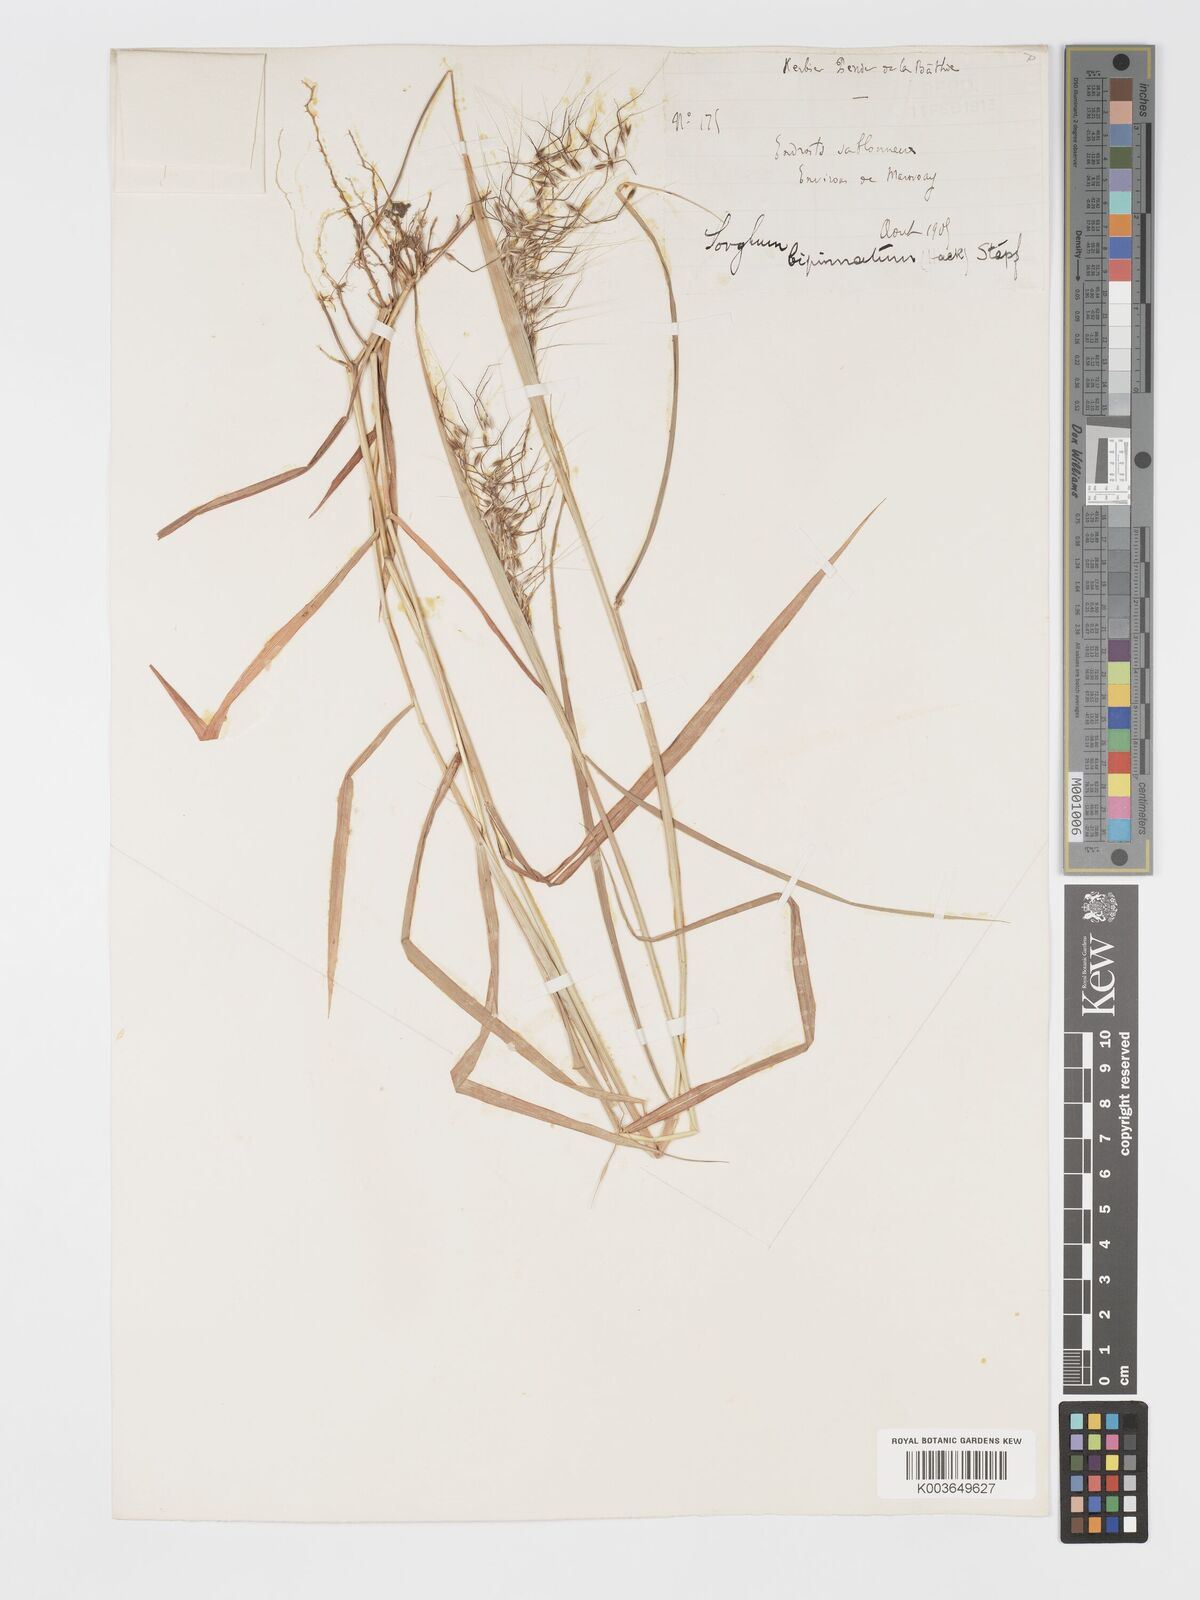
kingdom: Plantae
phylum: Tracheophyta
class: Liliopsida
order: Poales
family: Poaceae
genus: Sorghastrum
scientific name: Sorghastrum incompletum
